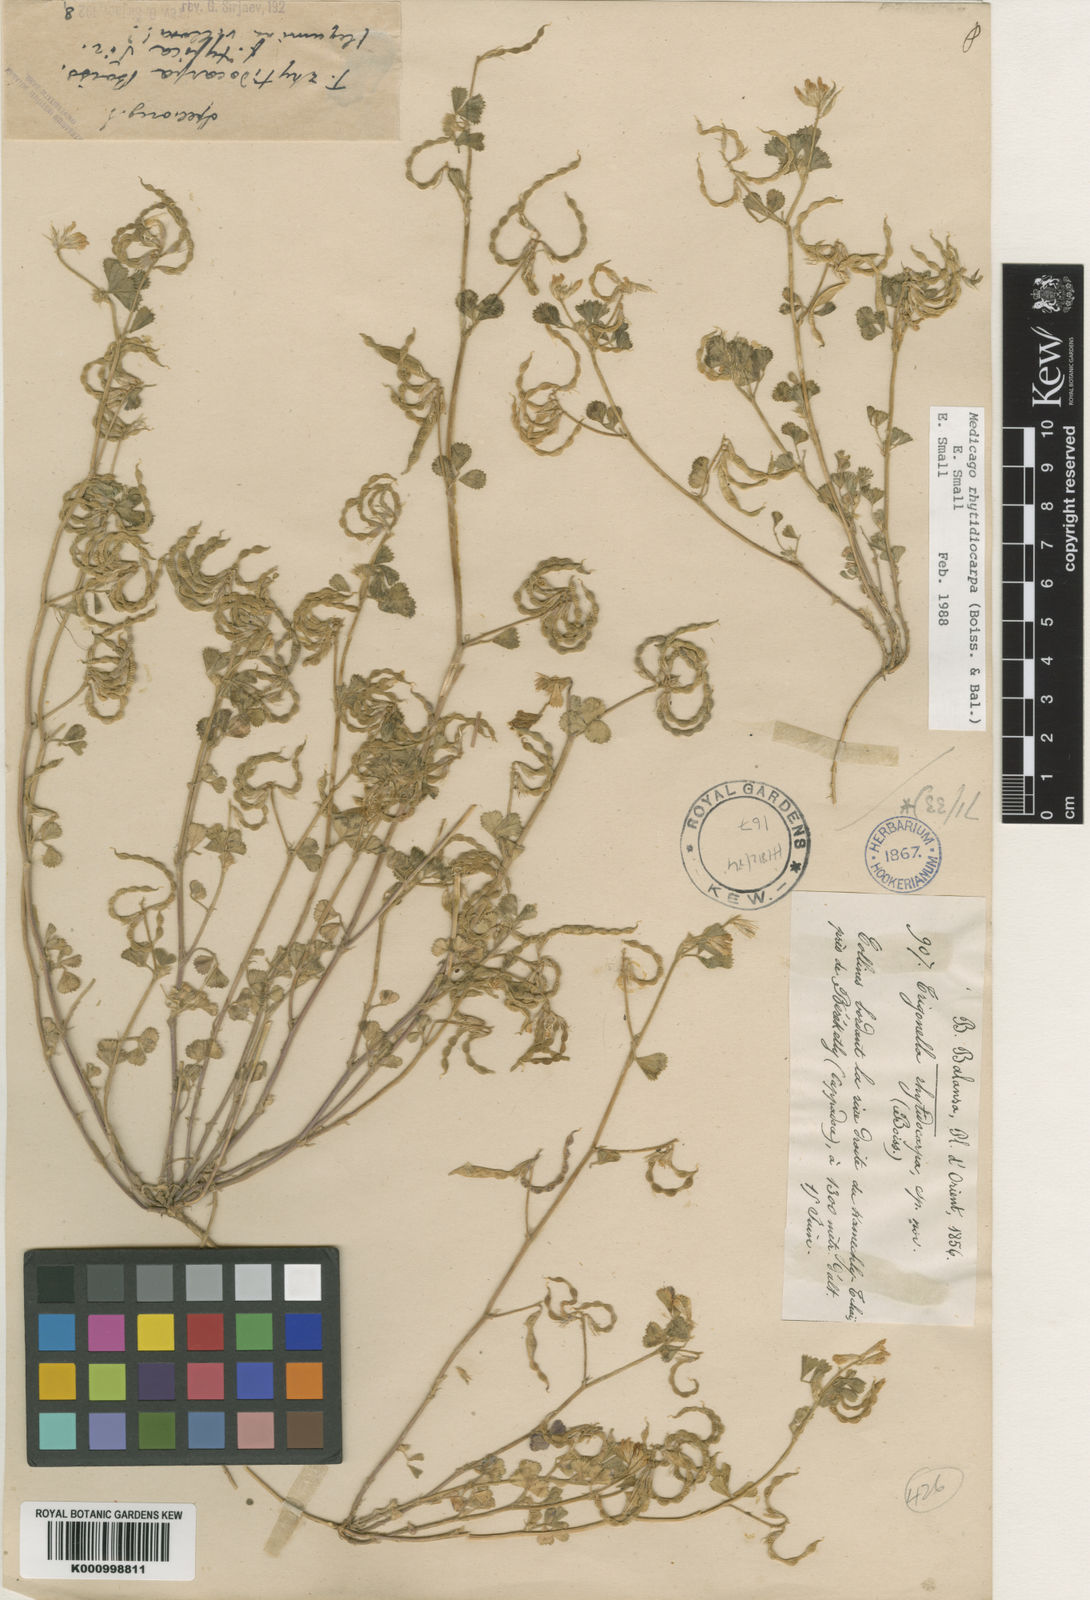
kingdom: Plantae
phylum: Tracheophyta
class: Magnoliopsida
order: Fabales
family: Fabaceae
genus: Medicago
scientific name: Medicago rhytidiocarpa
